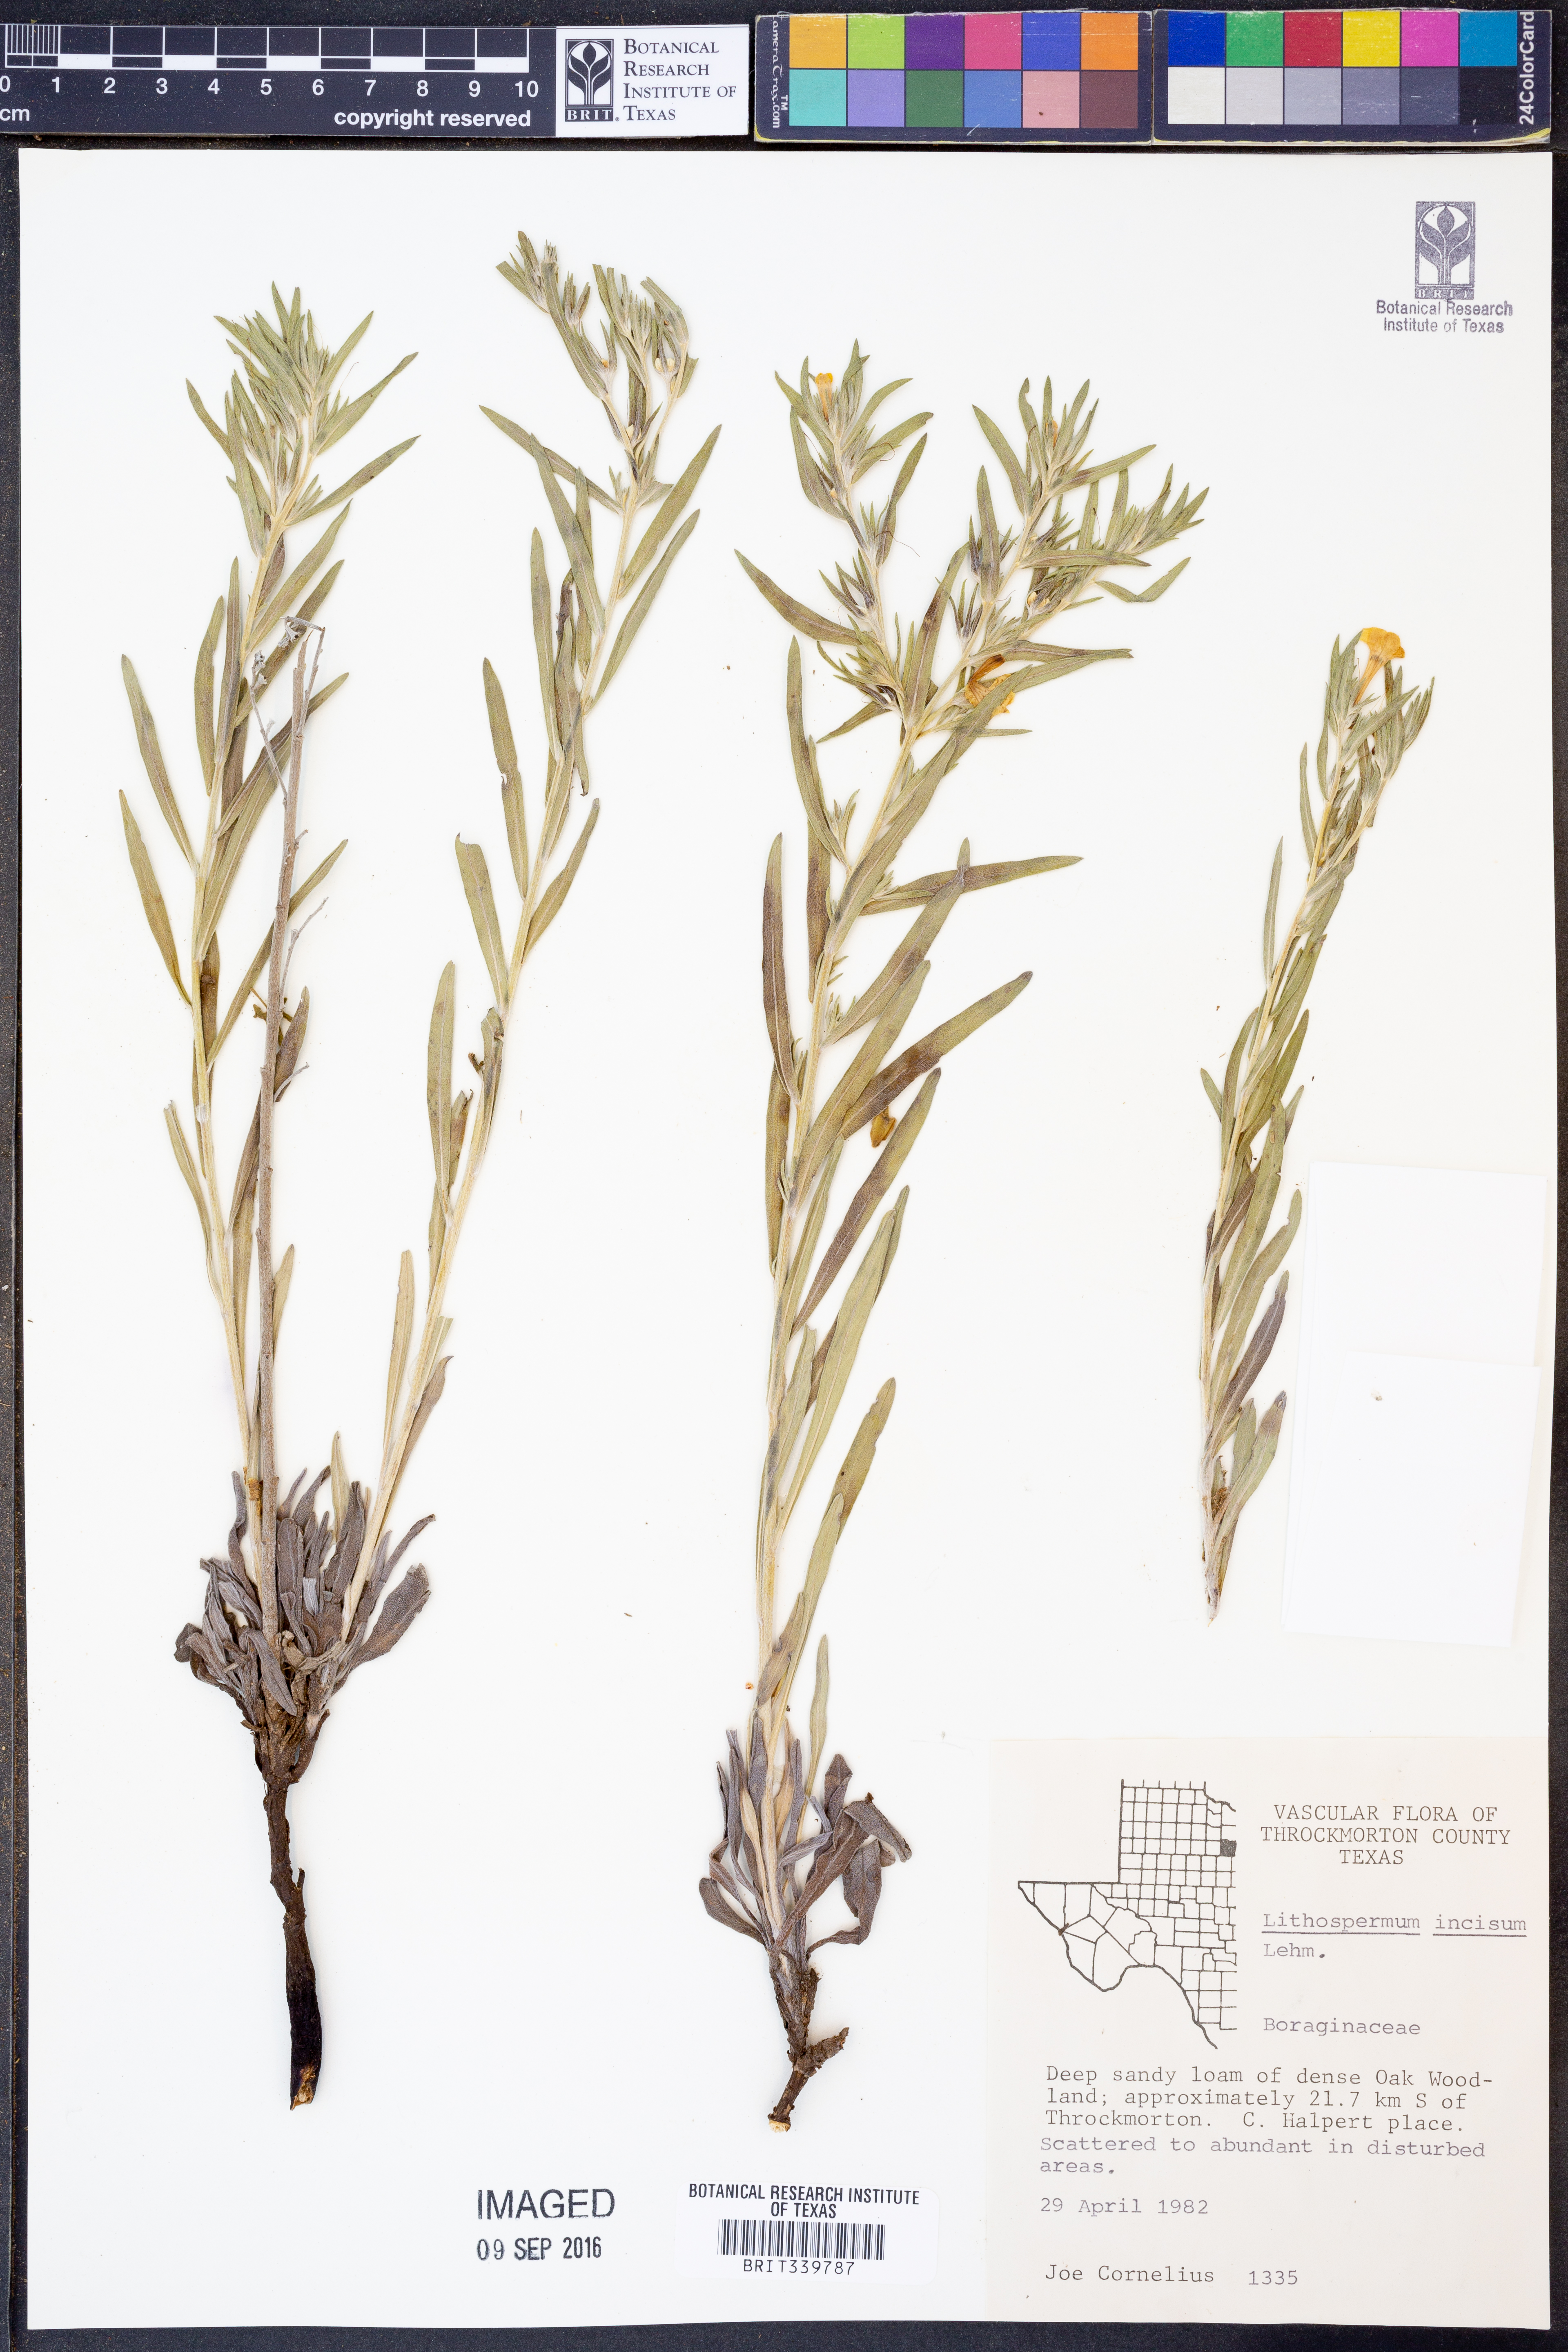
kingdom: Plantae
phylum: Tracheophyta
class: Magnoliopsida
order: Boraginales
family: Boraginaceae
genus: Lithospermum
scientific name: Lithospermum incisum
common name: Fringed gromwell
